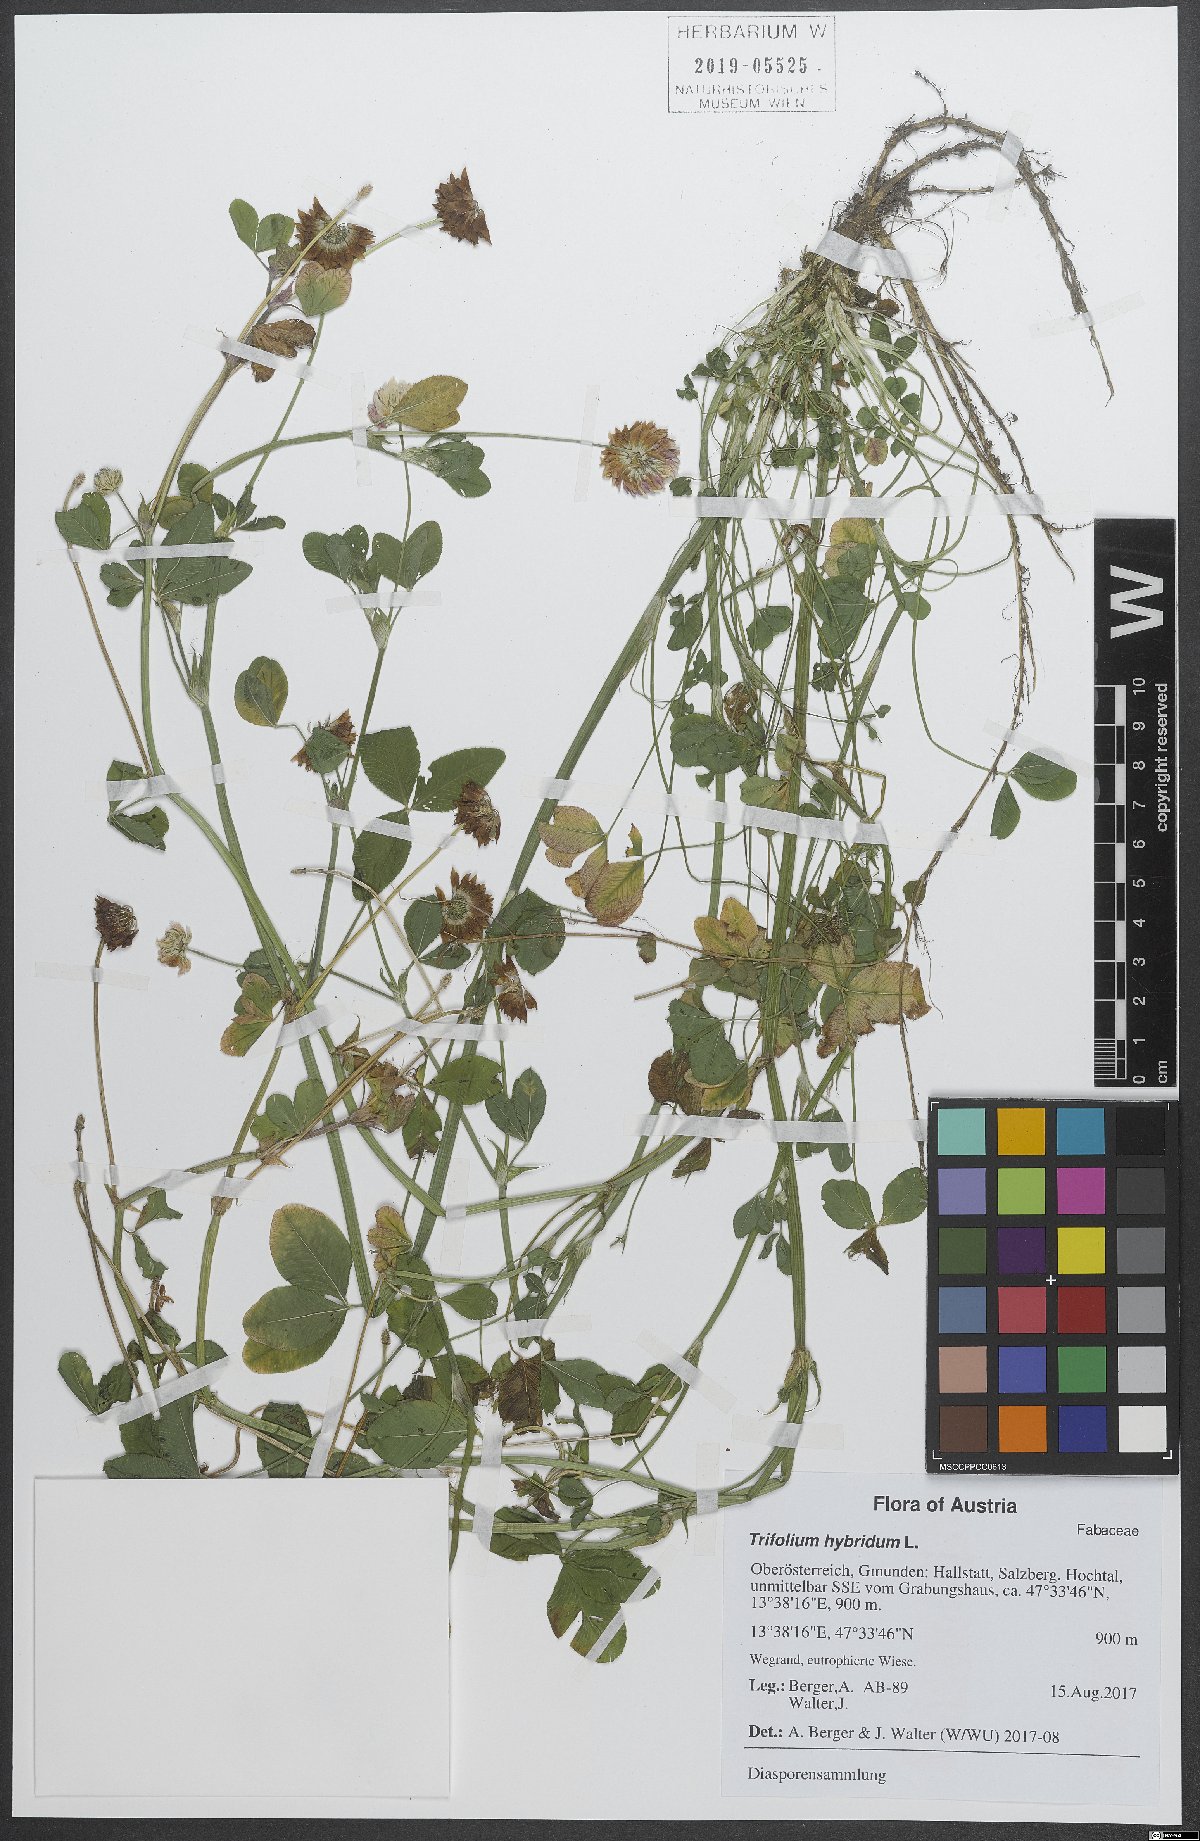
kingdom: Plantae
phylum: Tracheophyta
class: Magnoliopsida
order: Fabales
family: Fabaceae
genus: Trifolium
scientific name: Trifolium hybridum
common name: Alsike clover
